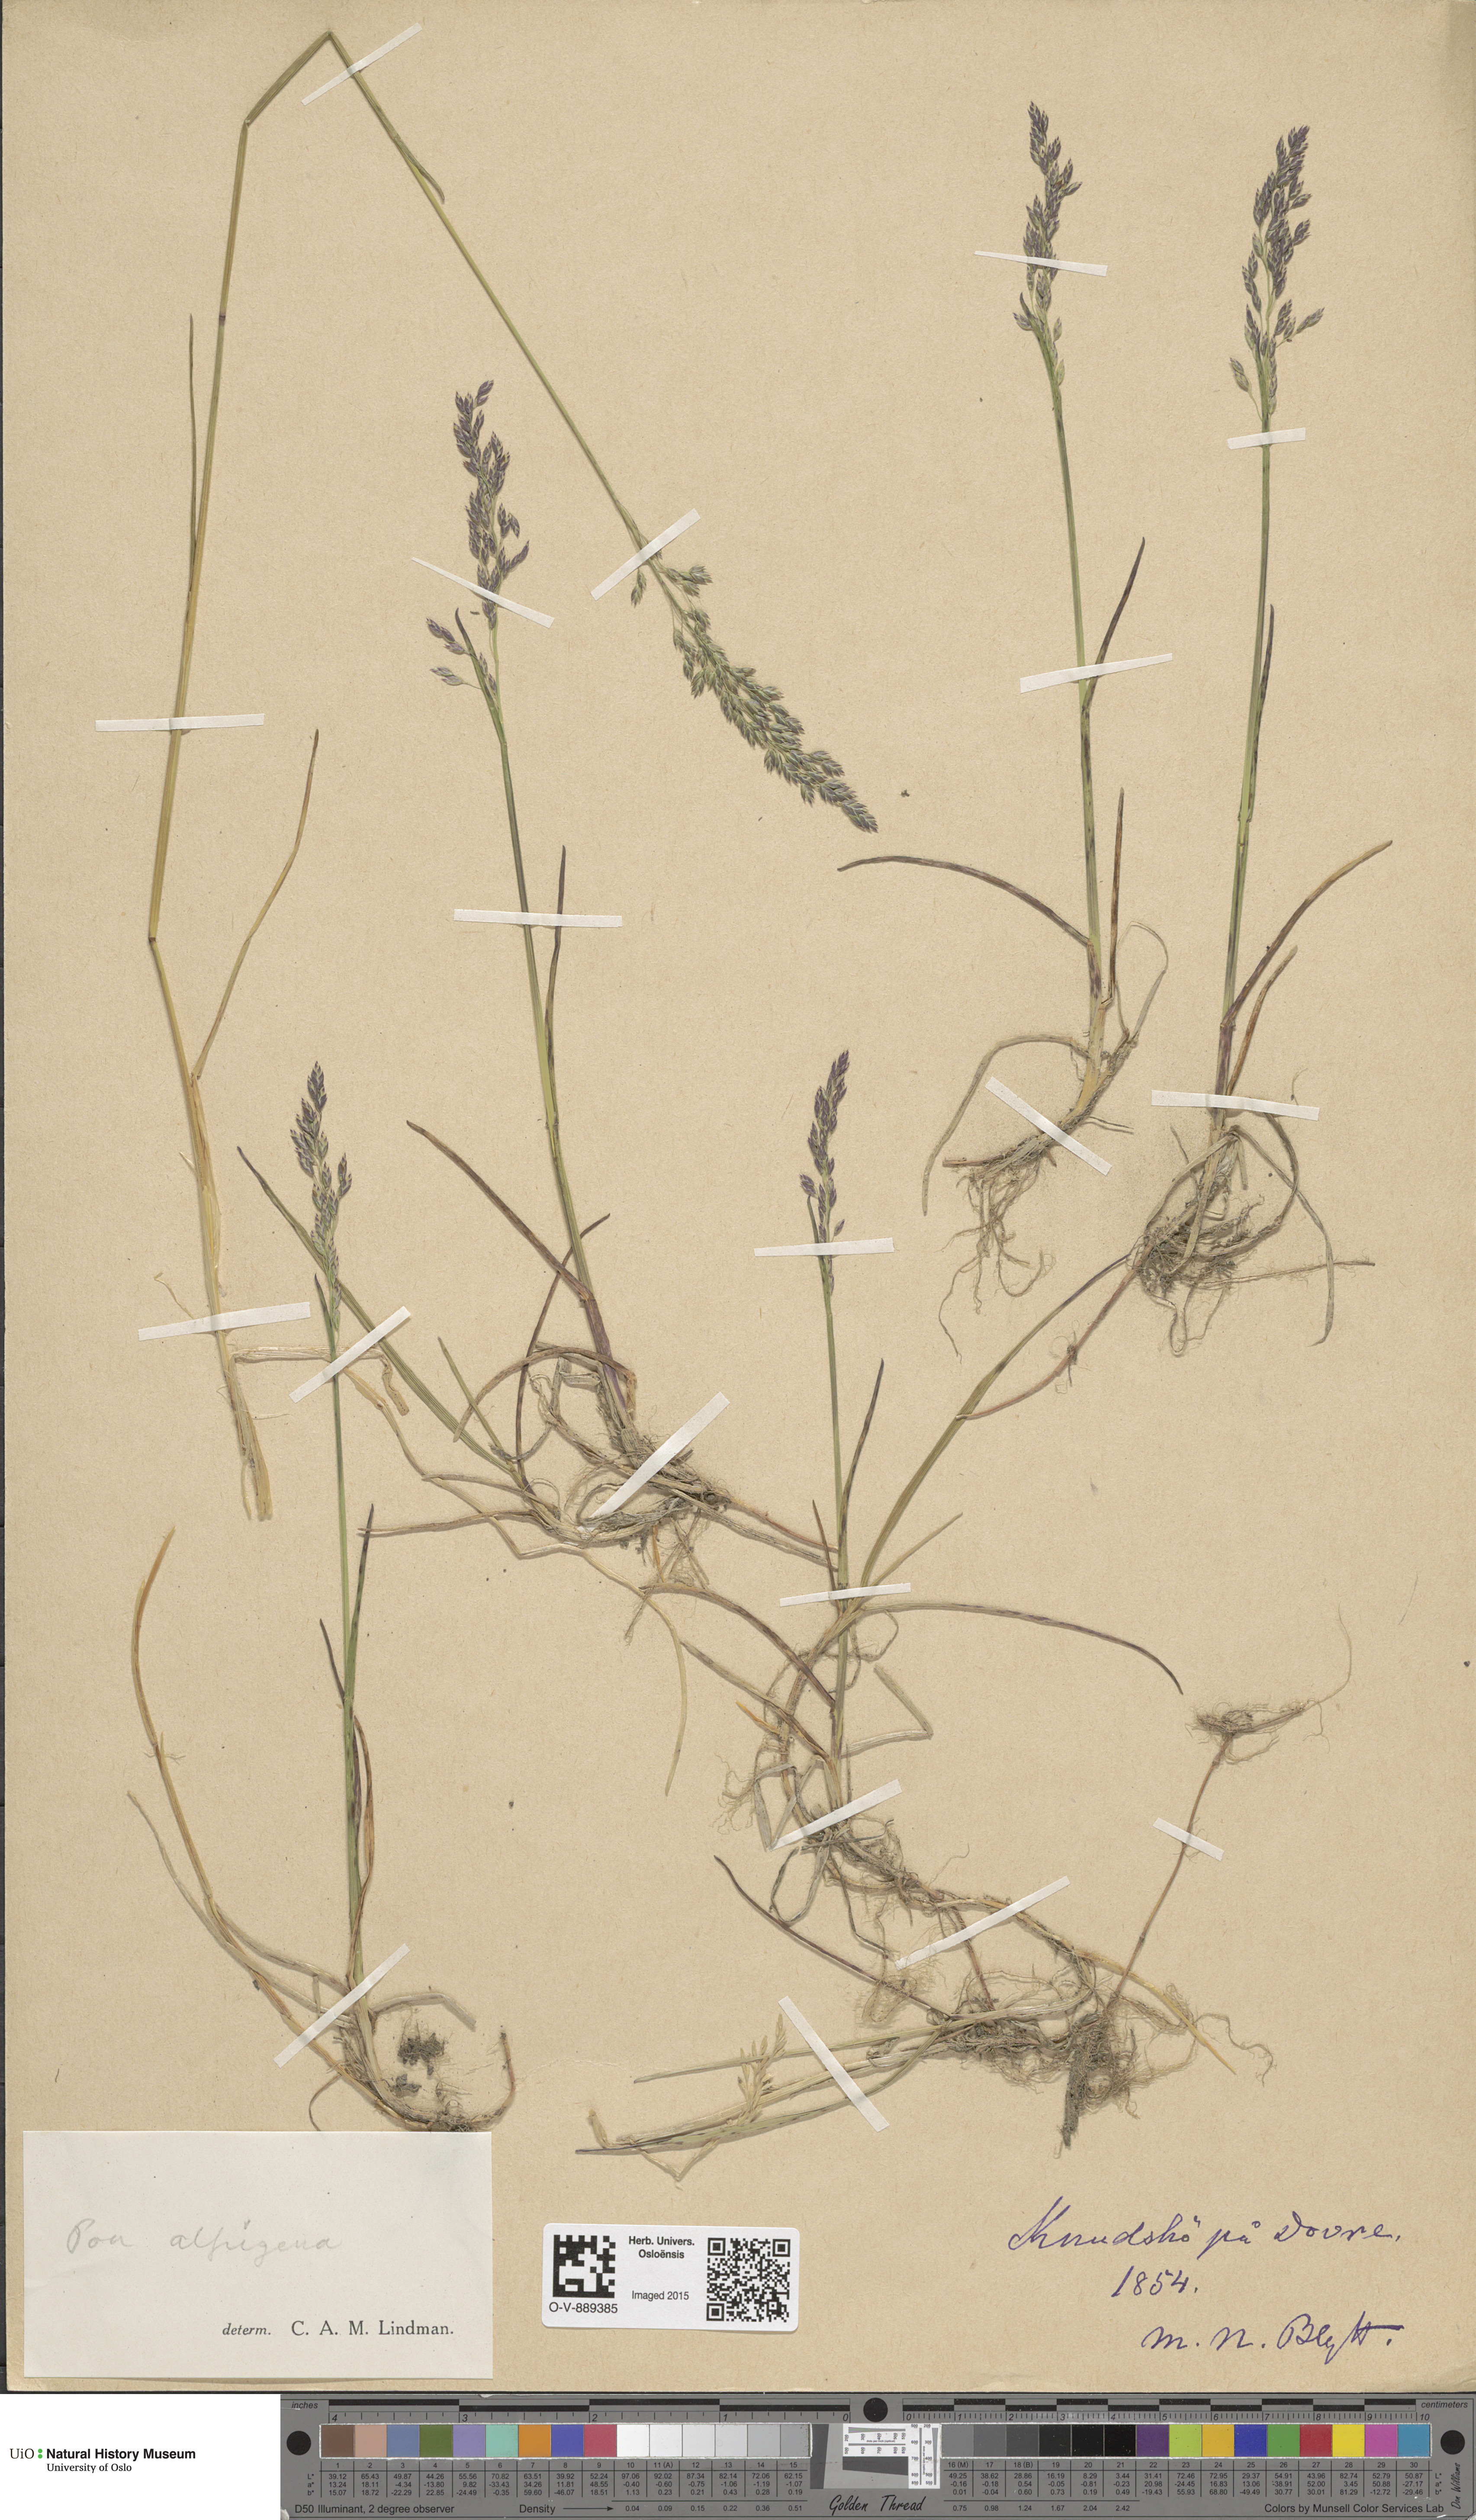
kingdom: Plantae
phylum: Tracheophyta
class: Liliopsida
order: Poales
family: Poaceae
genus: Poa
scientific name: Poa alpigena
